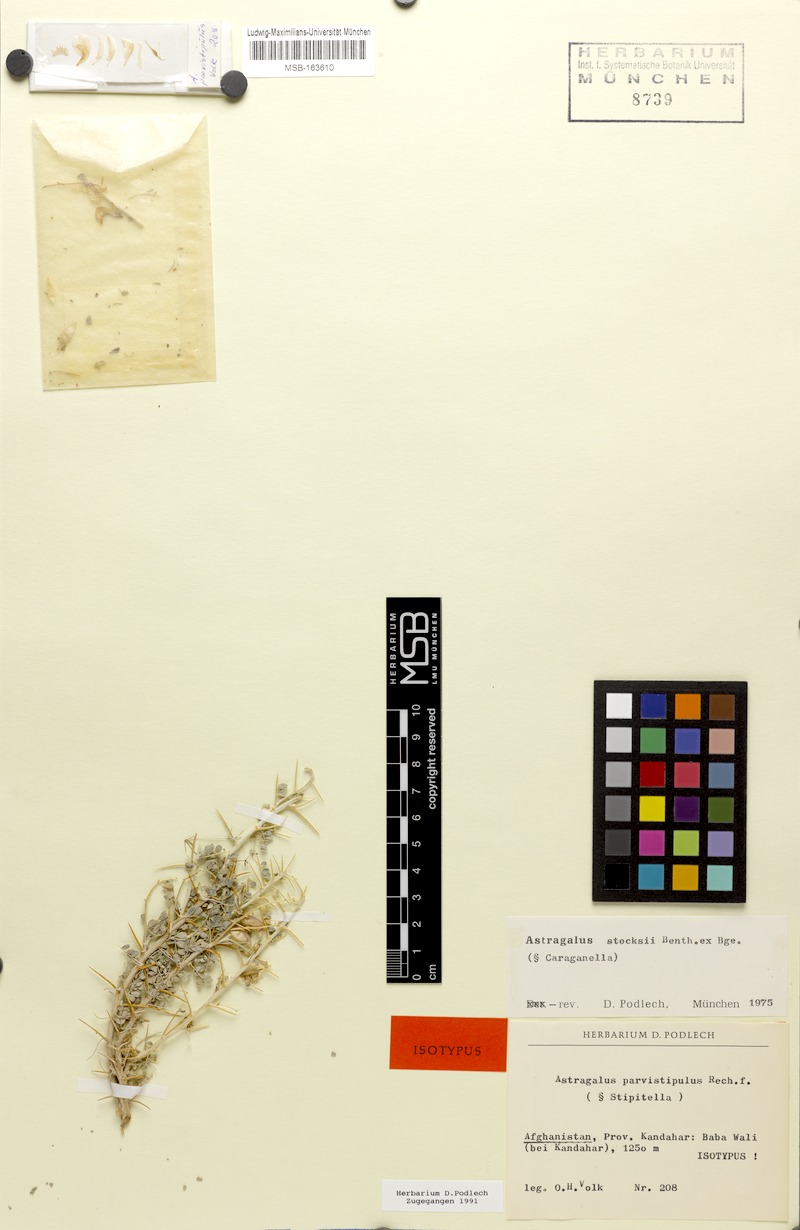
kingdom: Plantae
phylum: Tracheophyta
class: Magnoliopsida
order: Fabales
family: Fabaceae
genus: Astragalus
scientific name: Astragalus stocksii
